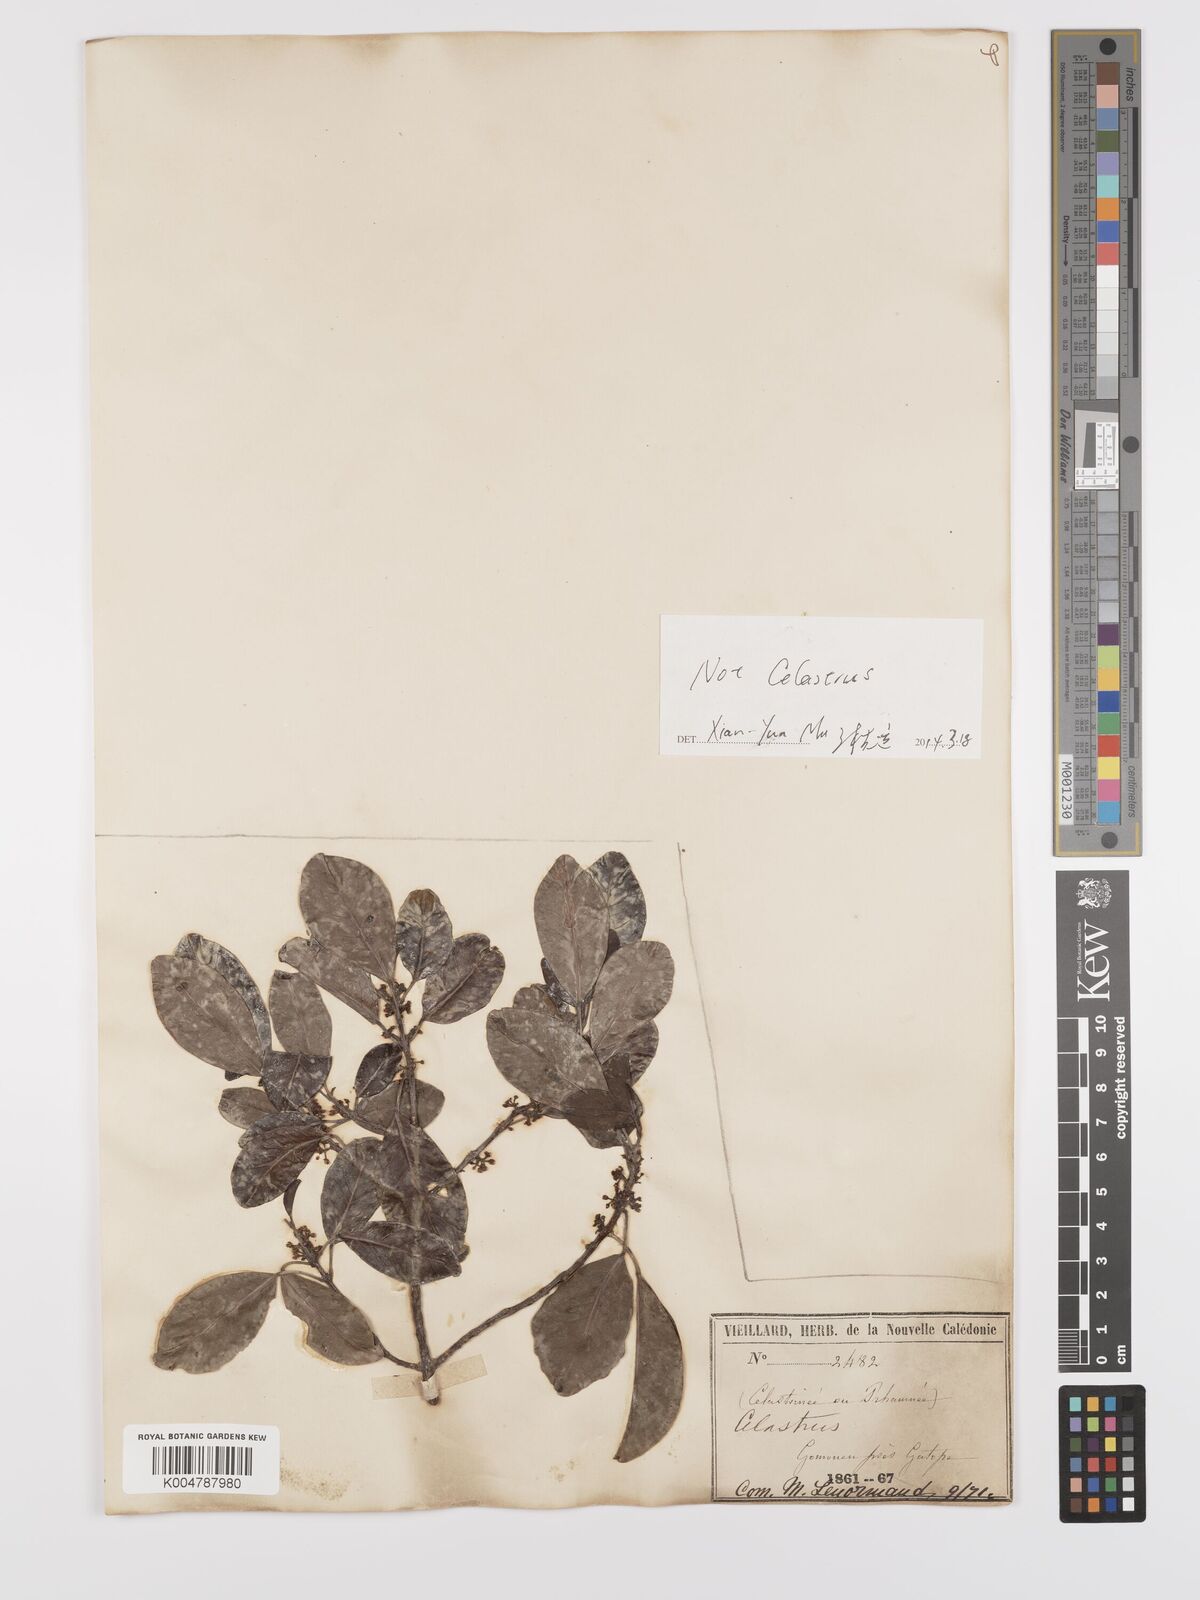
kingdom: Plantae
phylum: Tracheophyta
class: Magnoliopsida
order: Celastrales
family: Celastraceae
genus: Denhamia
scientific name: Denhamia
